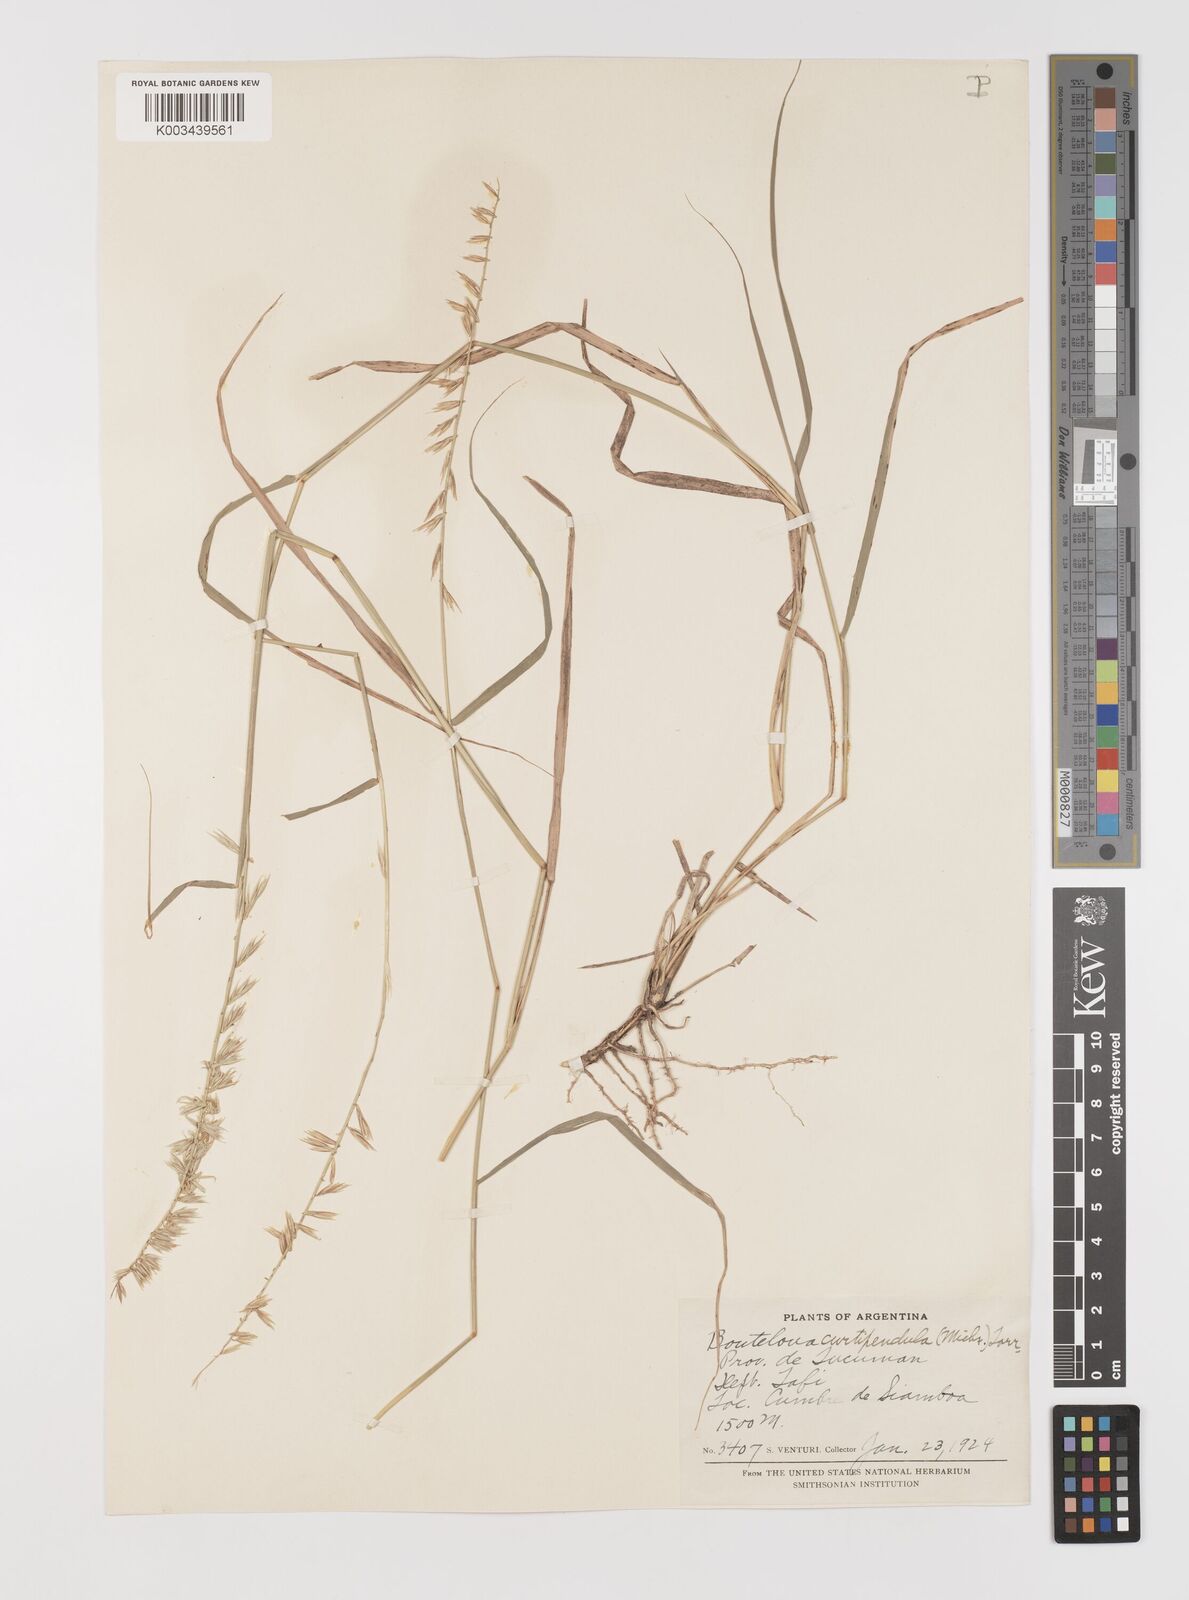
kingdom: Plantae
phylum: Tracheophyta
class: Liliopsida
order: Poales
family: Poaceae
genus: Bouteloua
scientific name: Bouteloua curtipendula
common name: Side-oats grama
